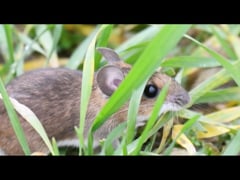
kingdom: Animalia
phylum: Chordata
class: Mammalia
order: Rodentia
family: Muridae
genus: Apodemus
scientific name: Apodemus sylvaticus
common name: Wood mouse
